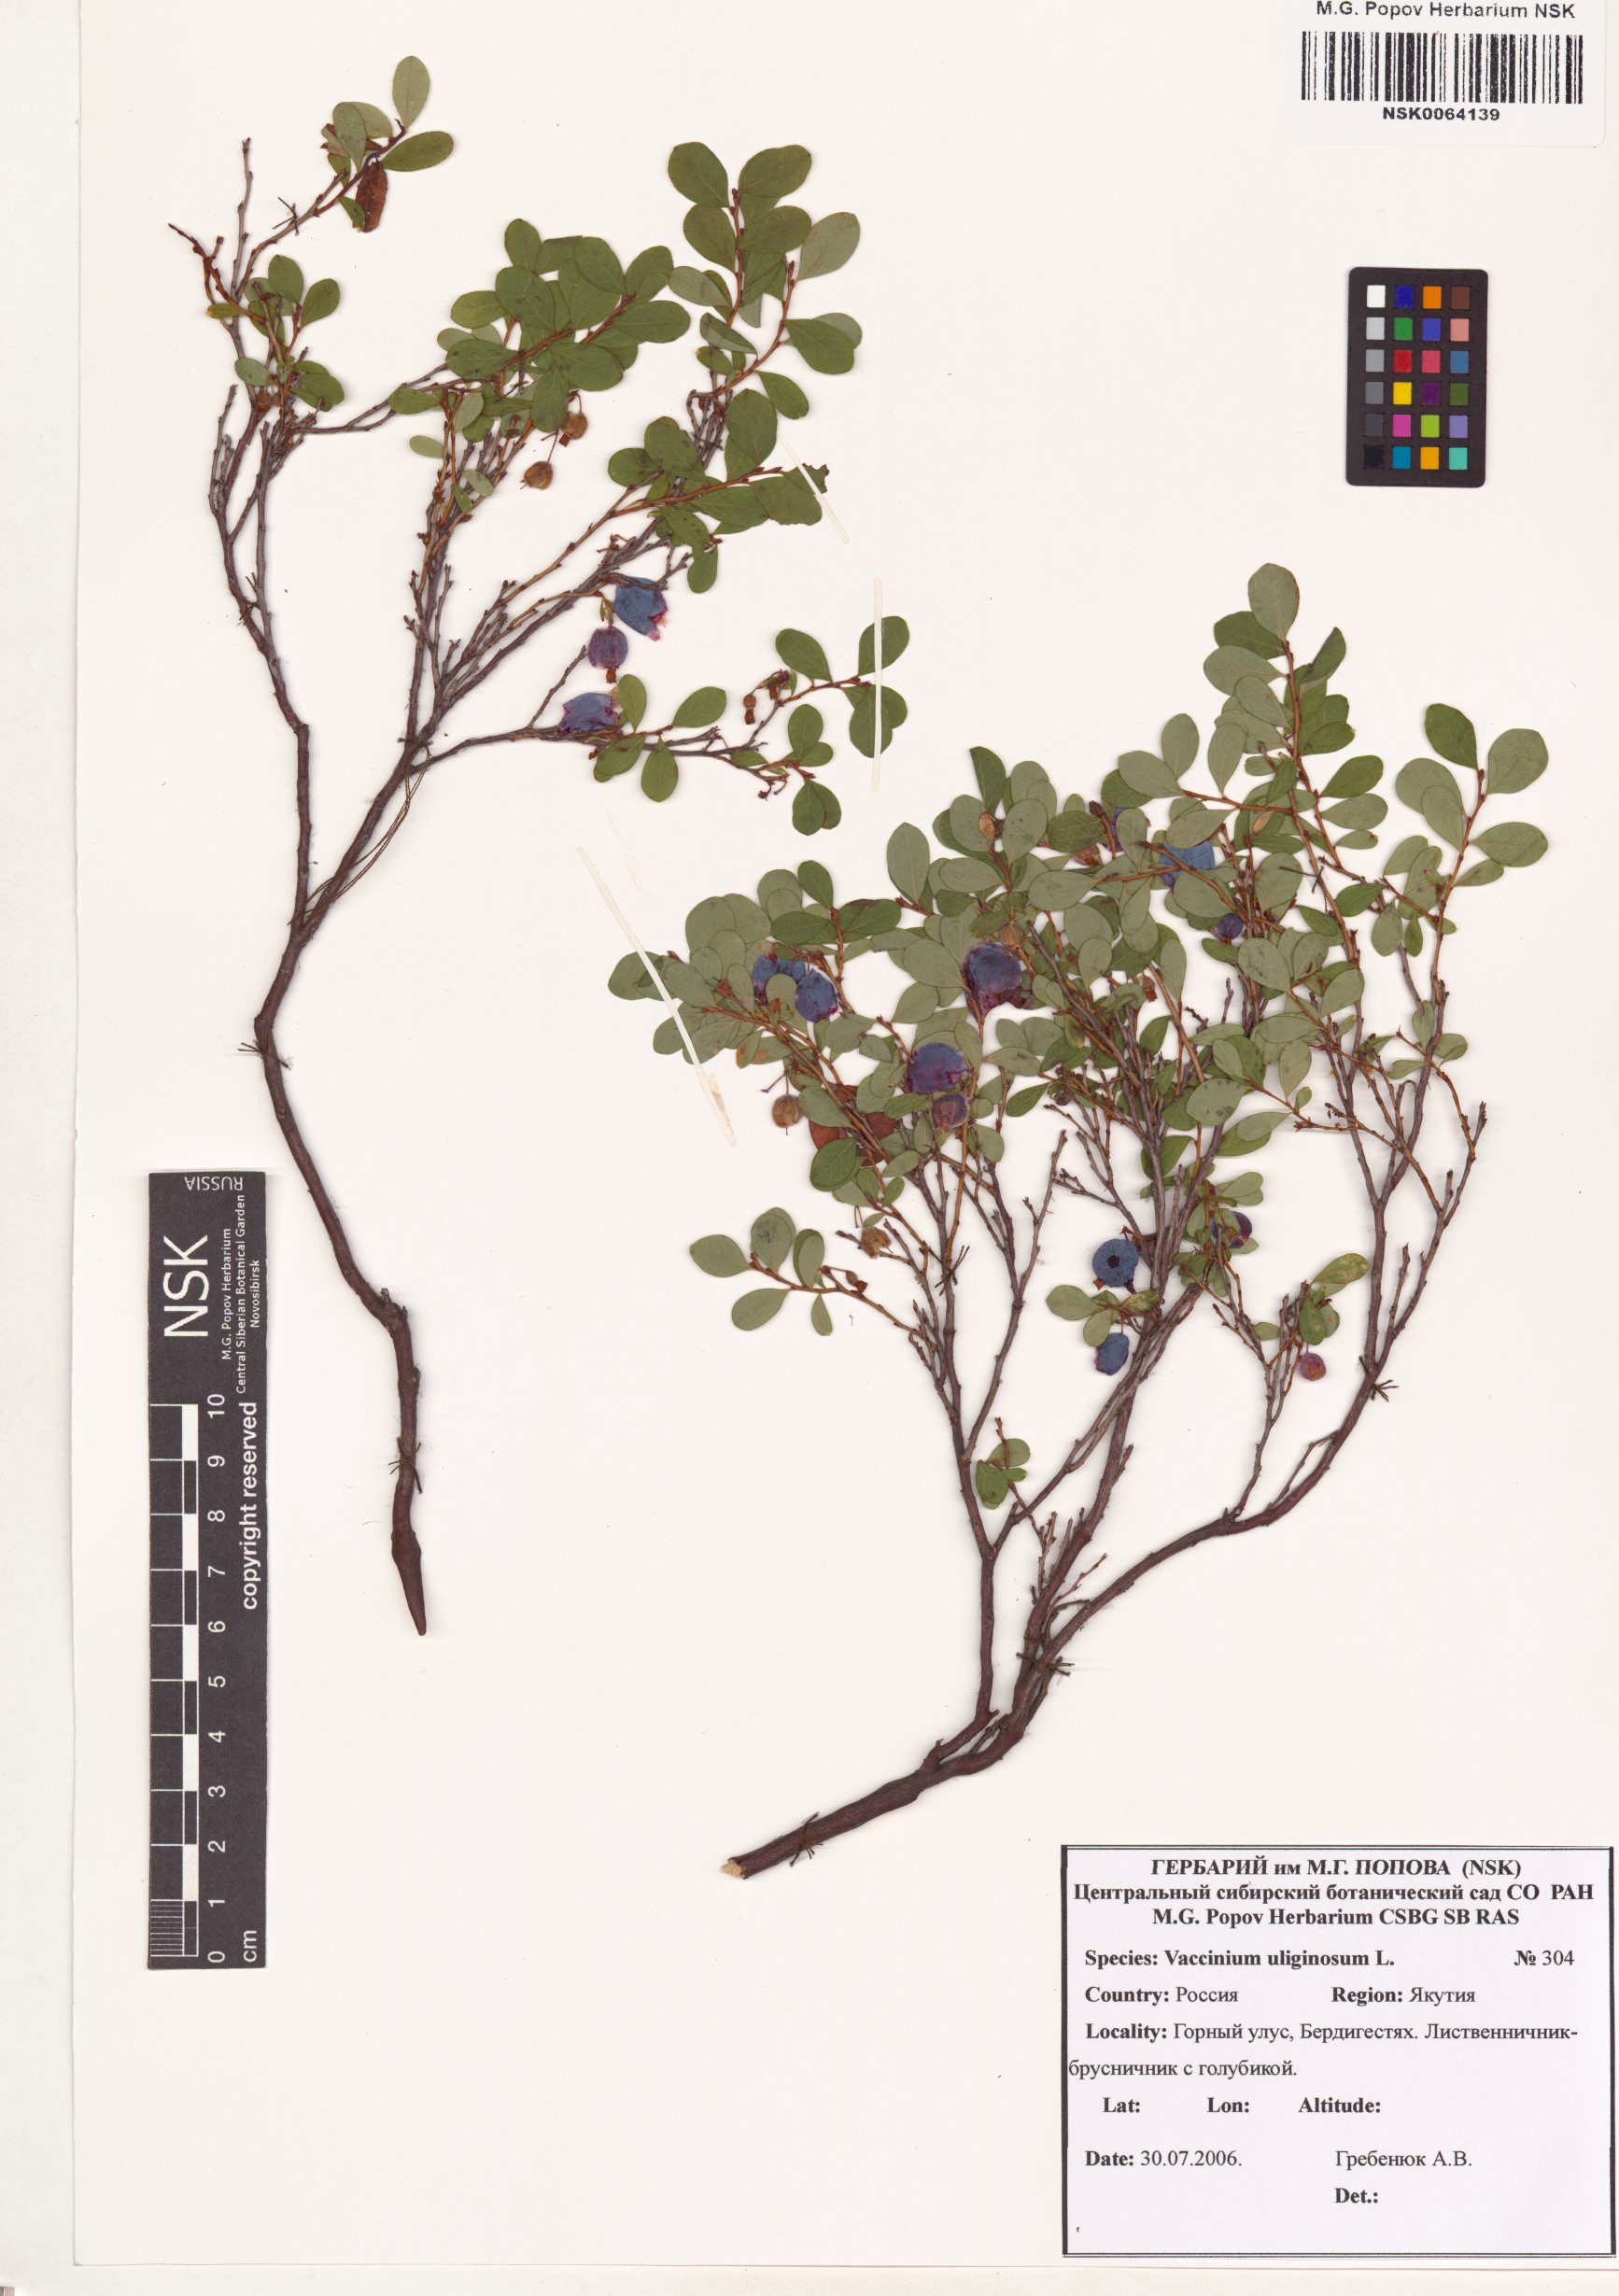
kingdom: Plantae
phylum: Tracheophyta
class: Magnoliopsida
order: Ericales
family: Ericaceae
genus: Vaccinium
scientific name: Vaccinium uliginosum
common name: Bog bilberry
